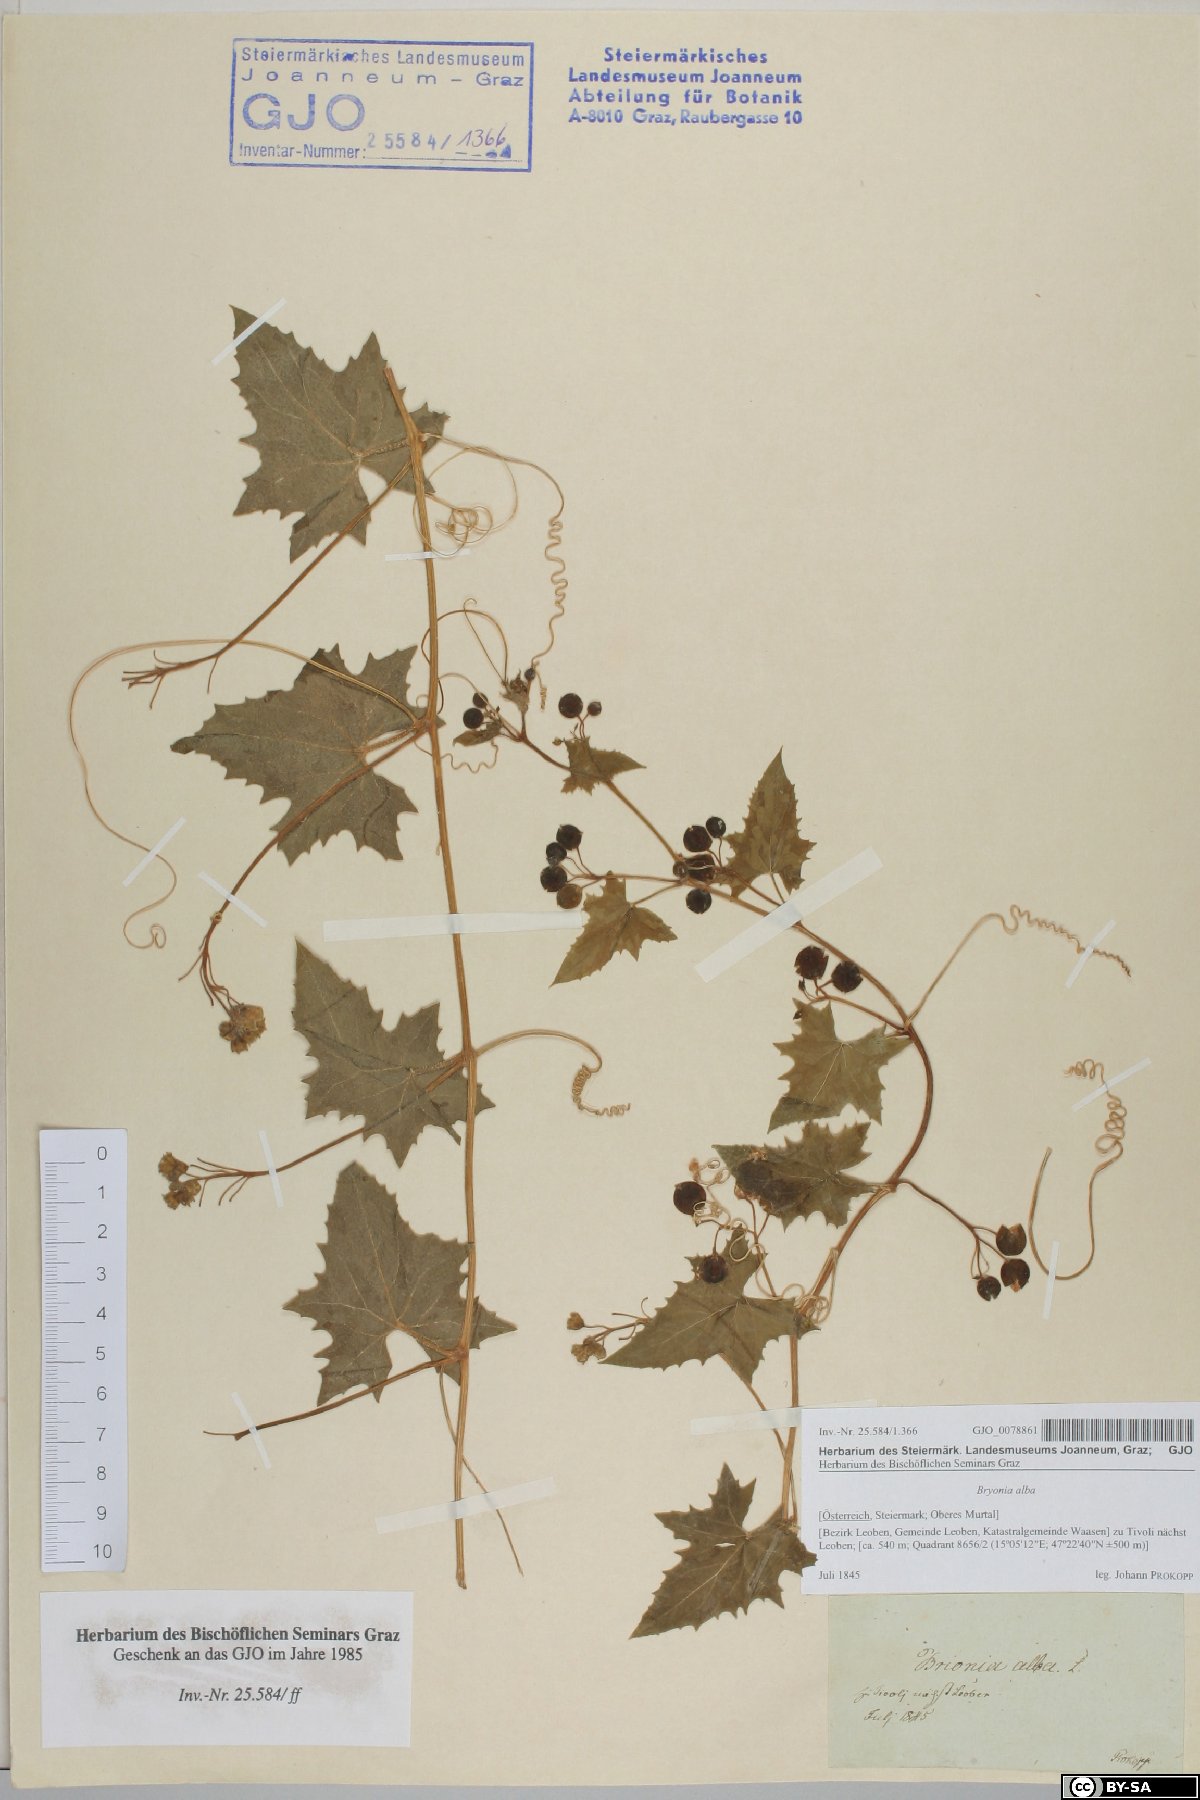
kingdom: Plantae
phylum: Tracheophyta
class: Magnoliopsida
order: Cucurbitales
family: Cucurbitaceae
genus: Bryonia
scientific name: Bryonia alba
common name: White bryony
